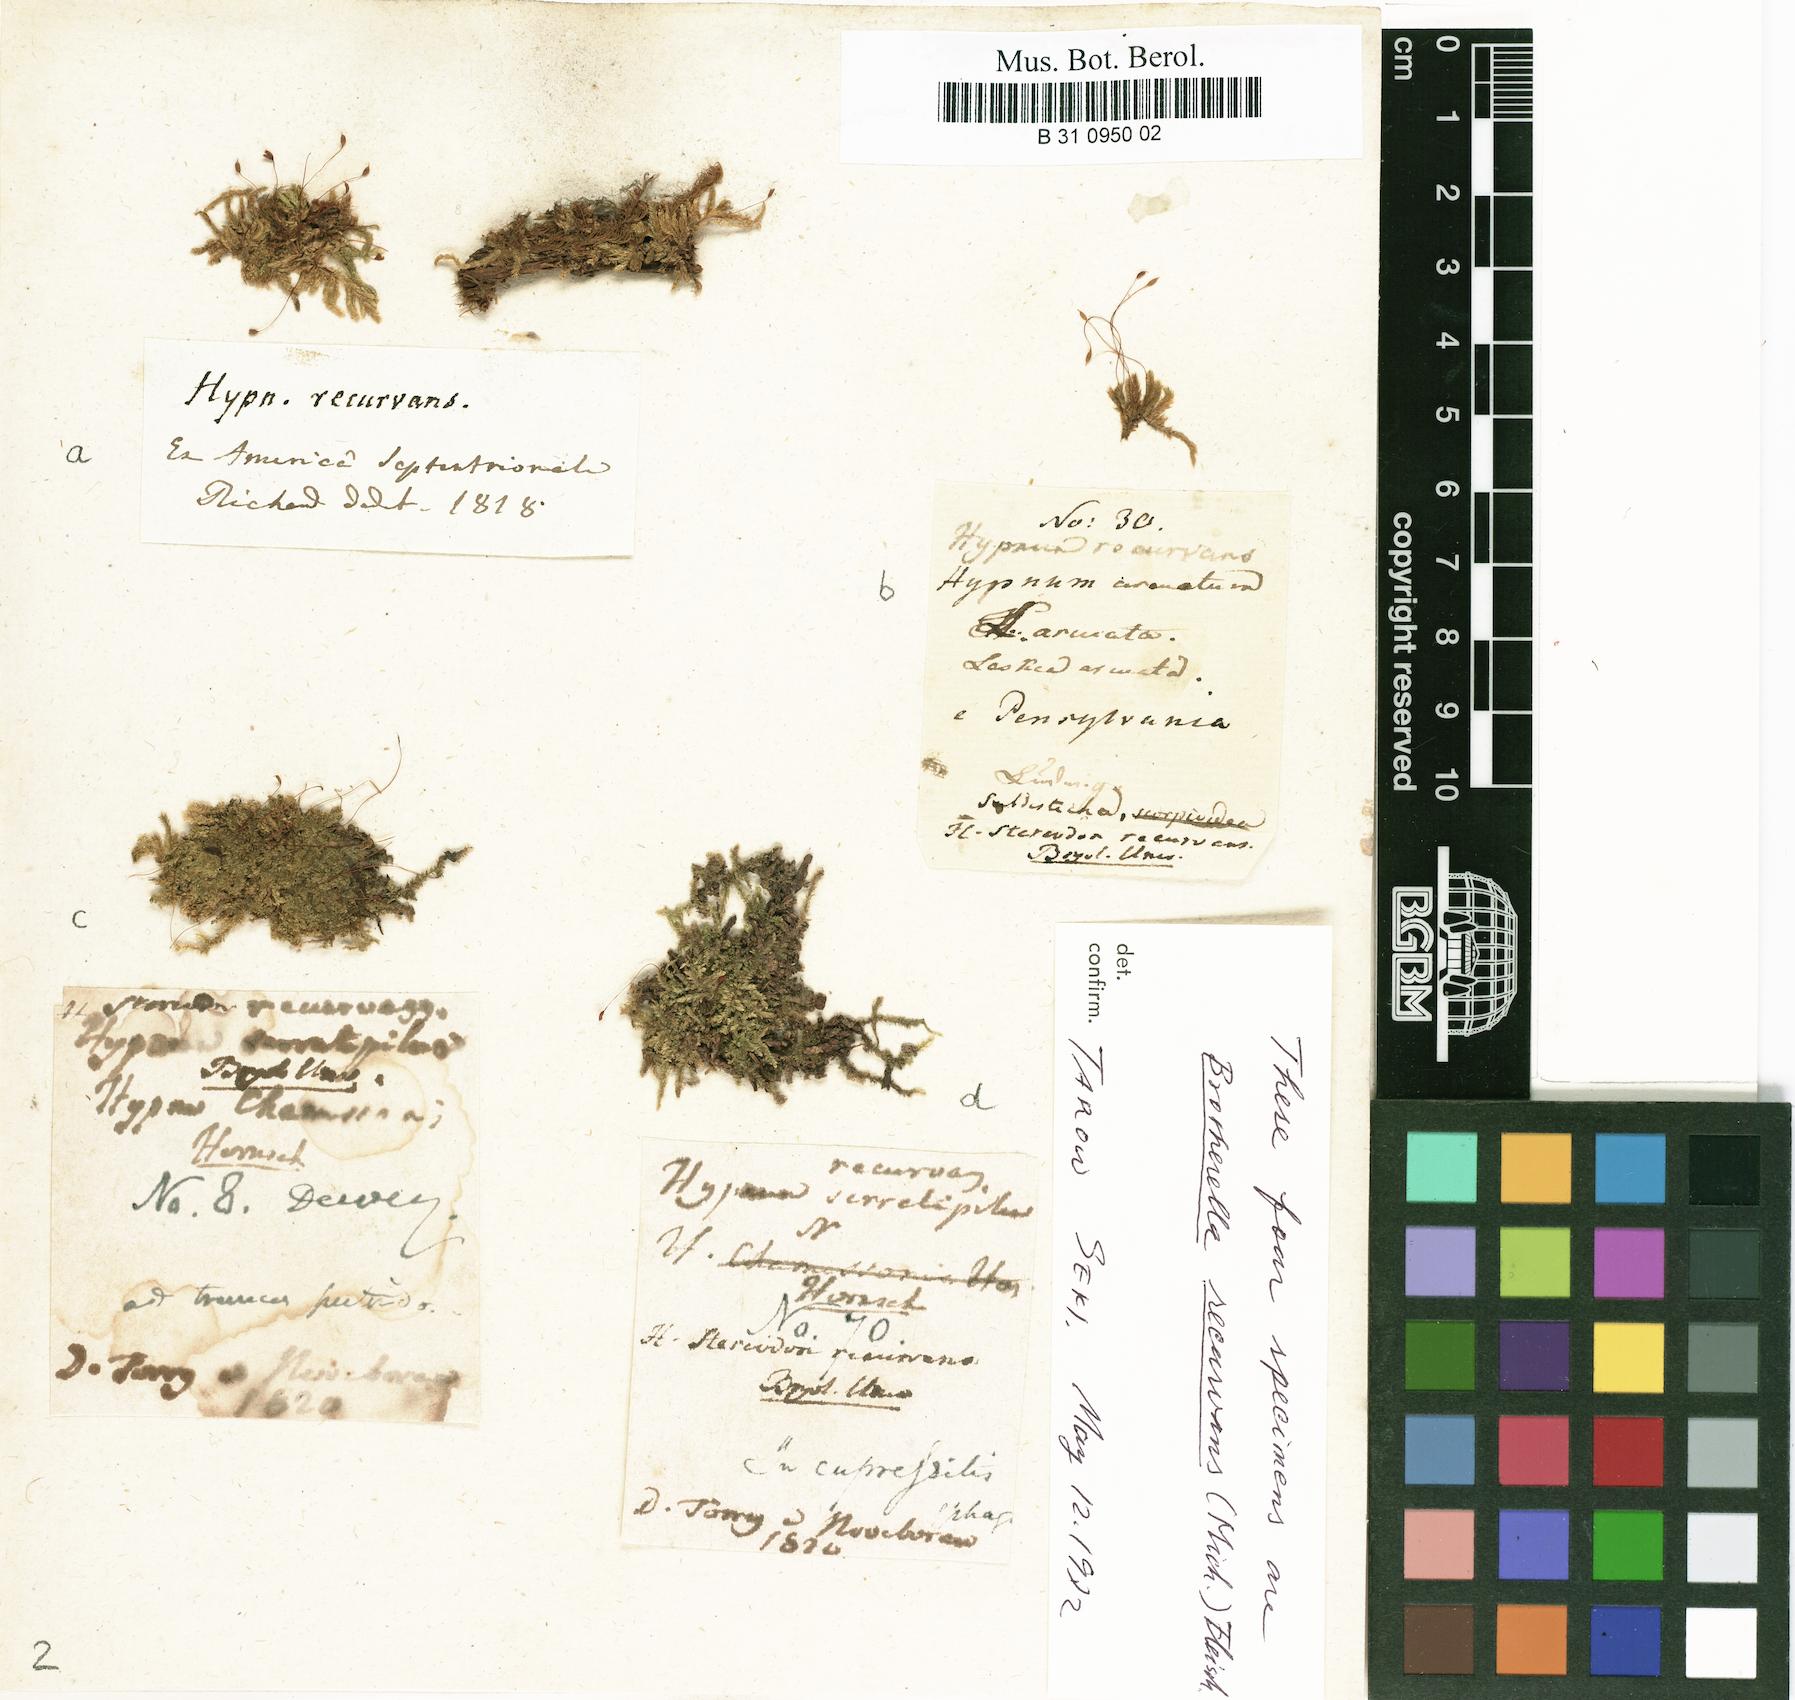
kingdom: Plantae
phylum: Bryophyta
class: Bryopsida
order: Hypnales
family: Pylaisiadelphaceae
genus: Brotherella
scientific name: Brotherella recurvans
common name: Recurved brotherella
